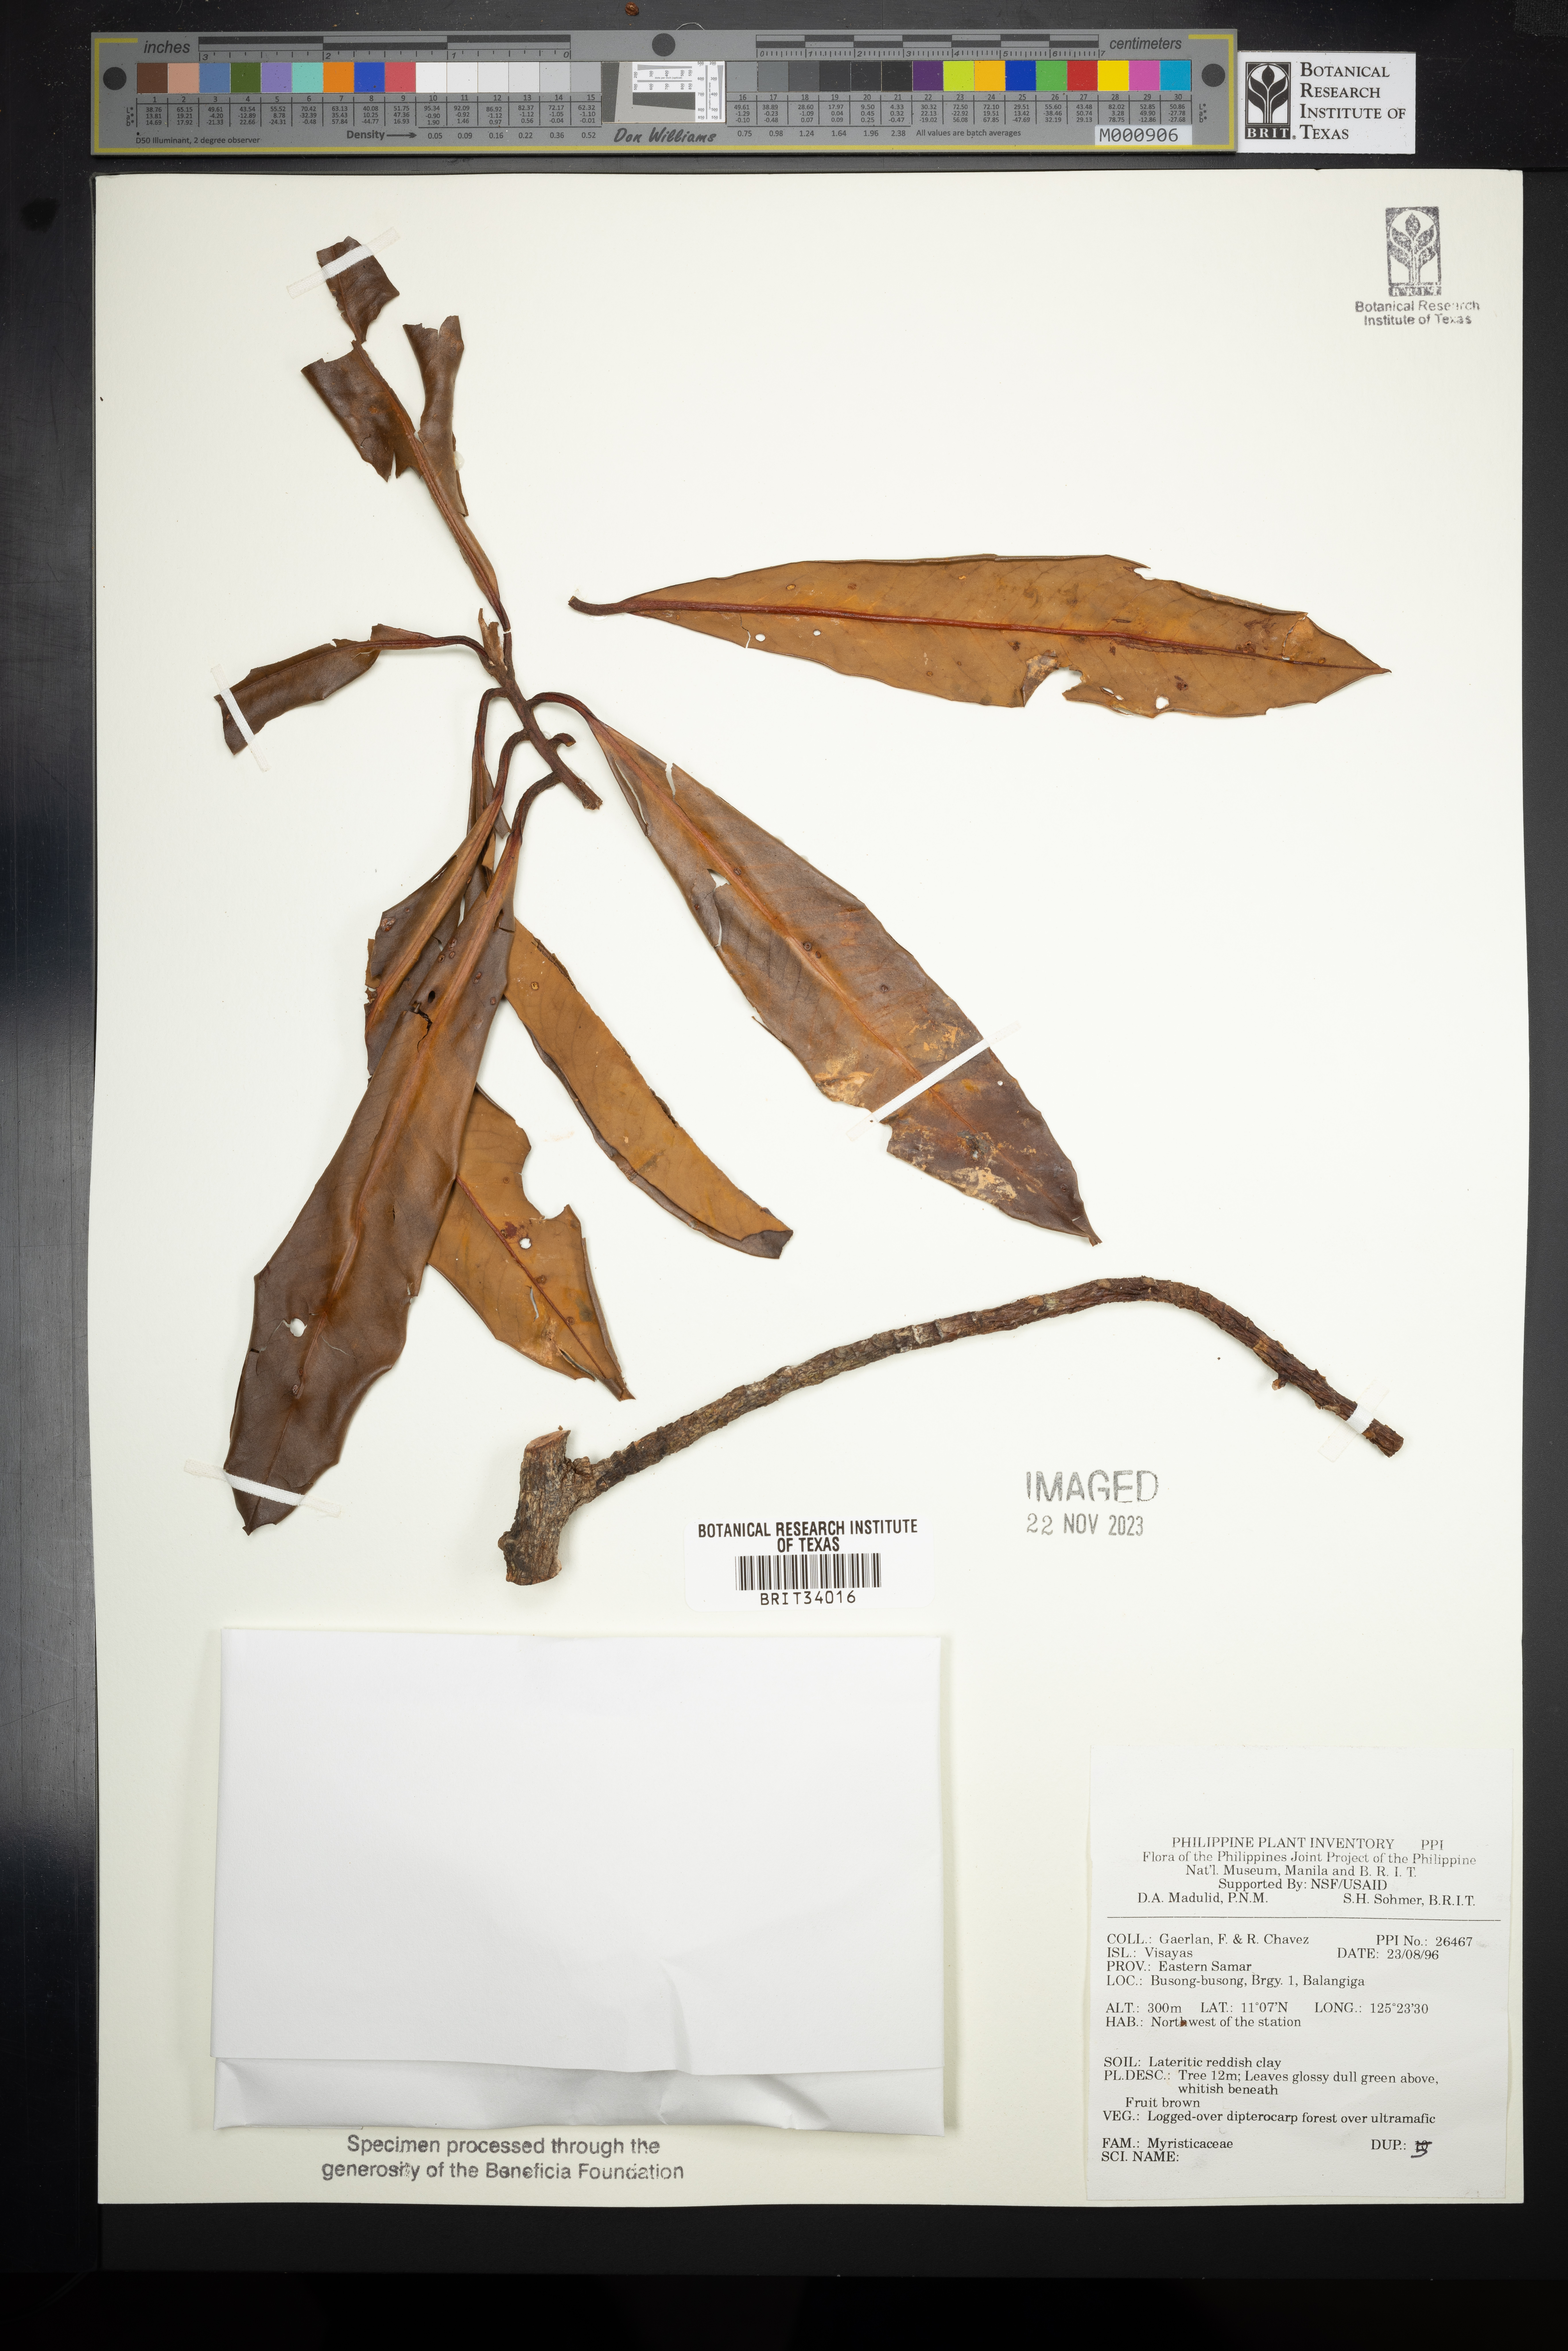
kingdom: Plantae
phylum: Tracheophyta
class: Magnoliopsida
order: Magnoliales
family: Myristicaceae
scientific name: Myristicaceae
